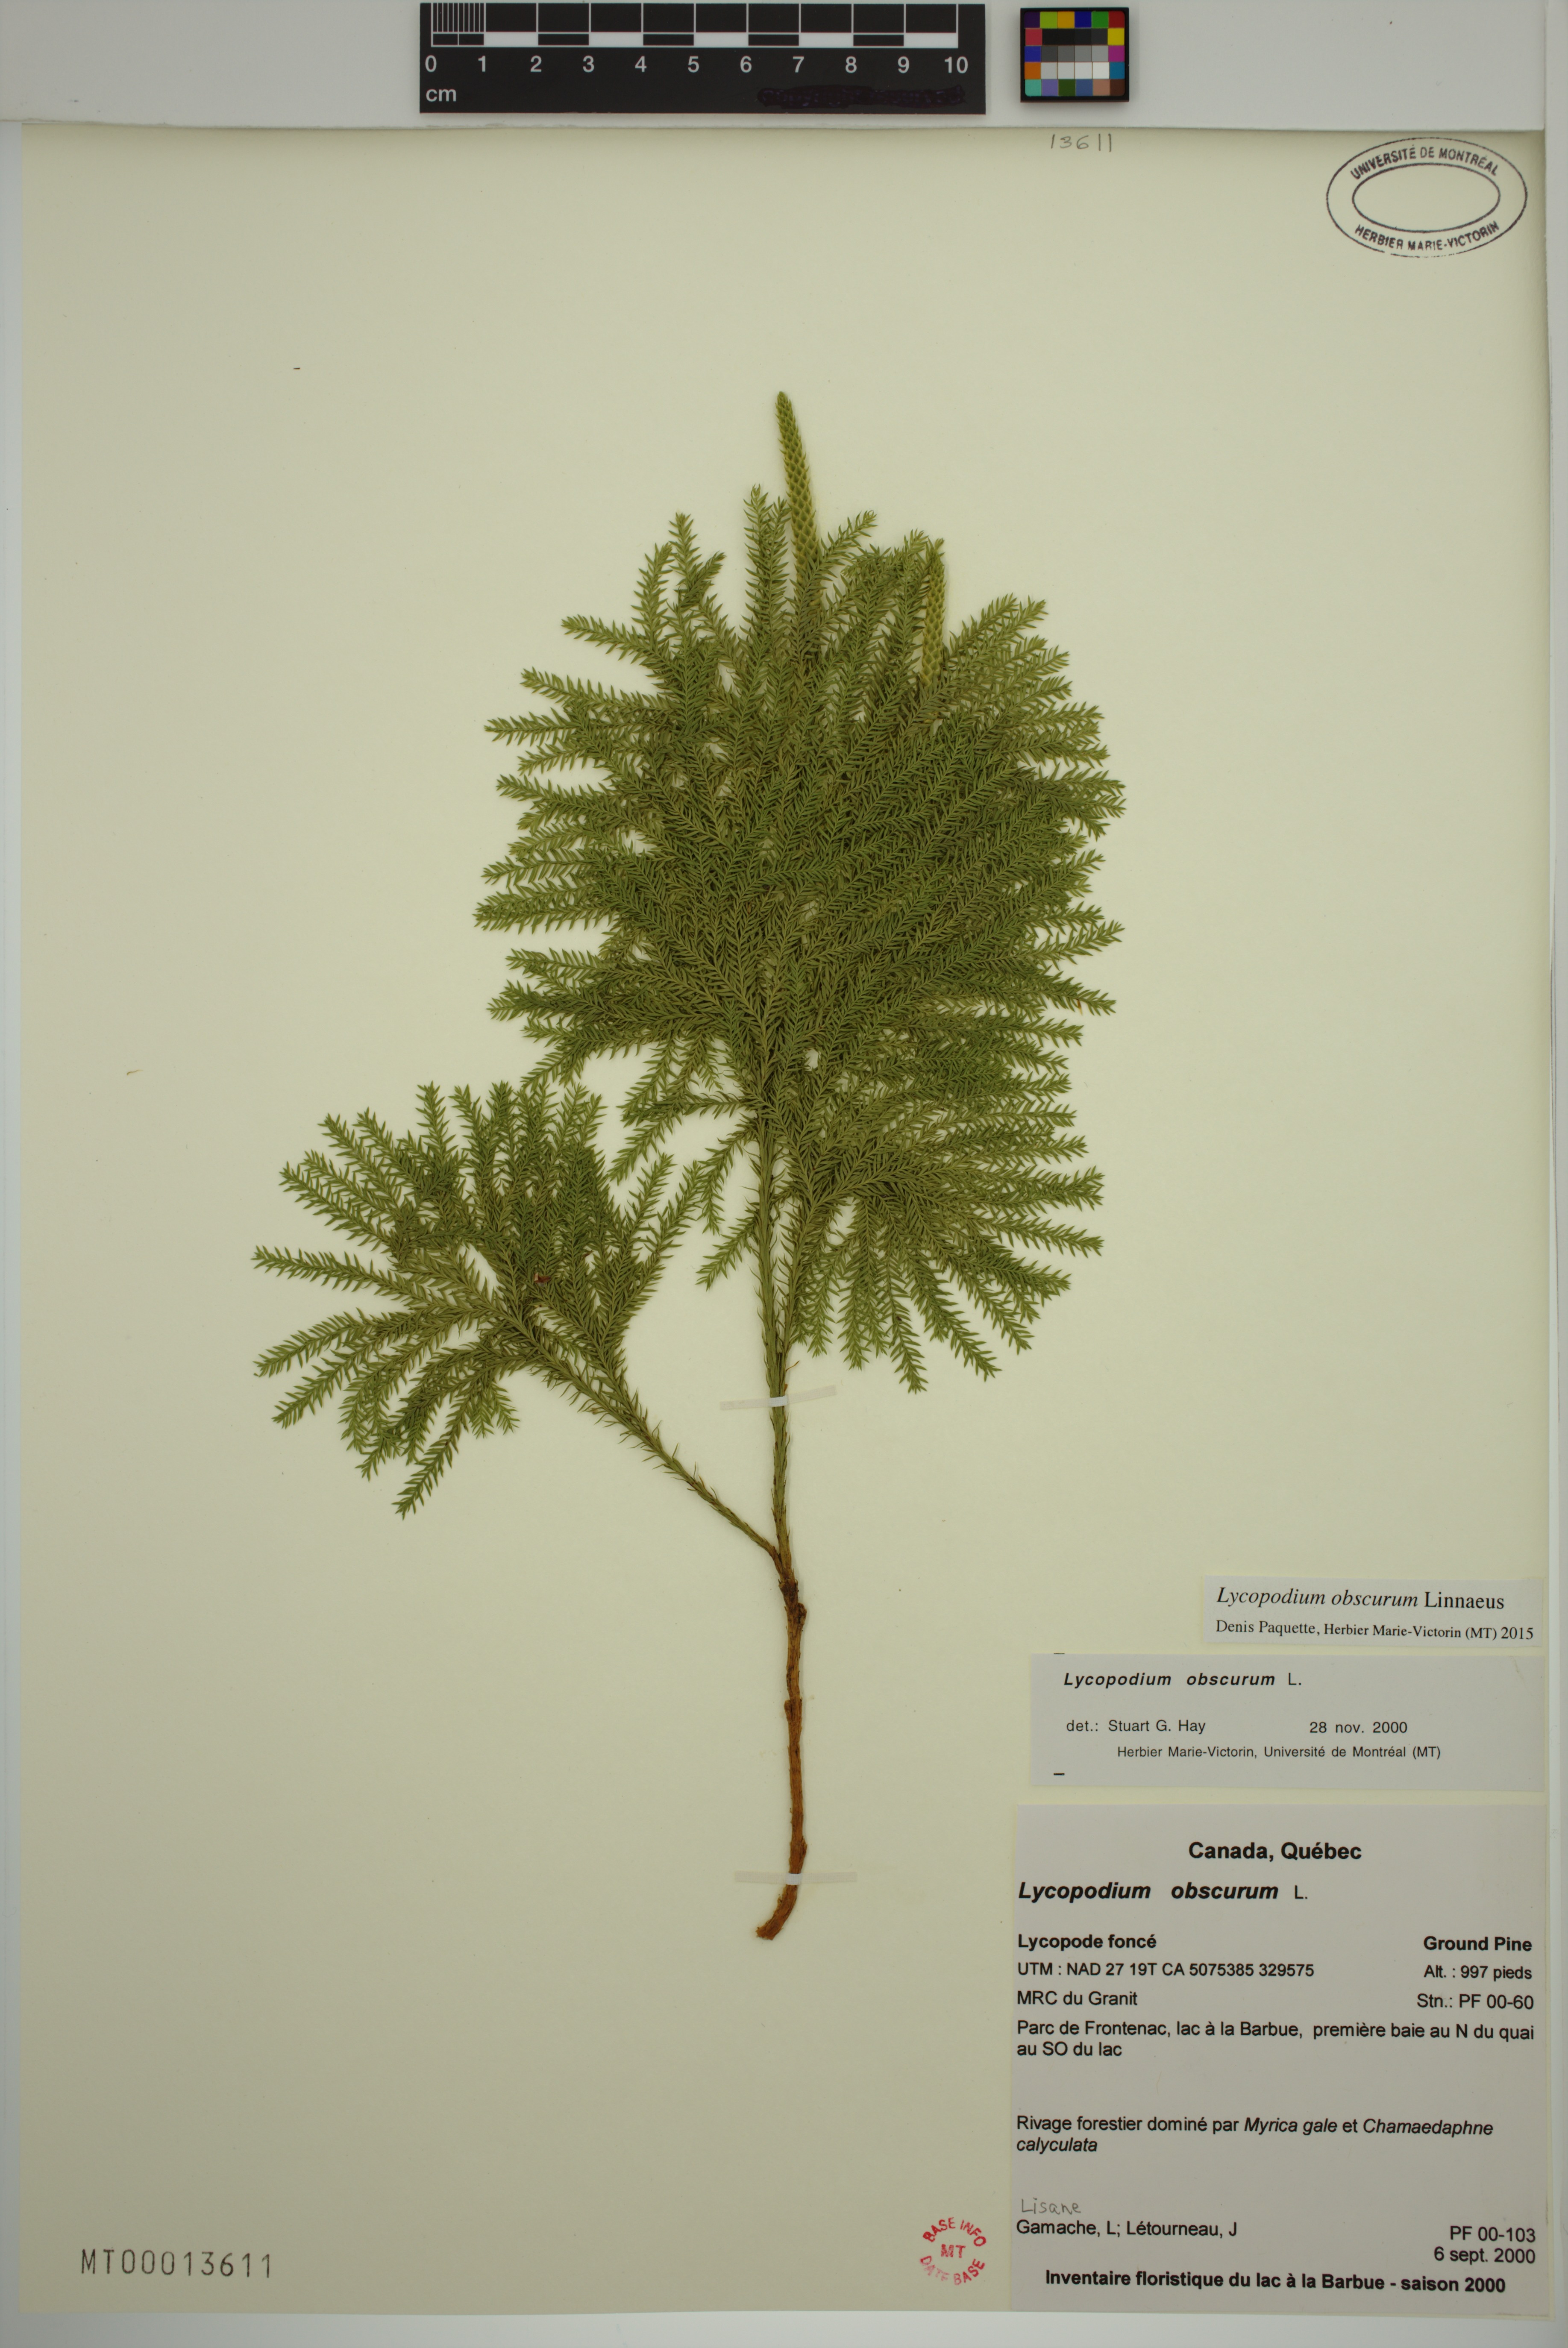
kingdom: Plantae
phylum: Tracheophyta
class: Lycopodiopsida
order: Lycopodiales
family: Lycopodiaceae
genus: Dendrolycopodium
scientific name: Dendrolycopodium obscurum
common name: Common ground-pine
